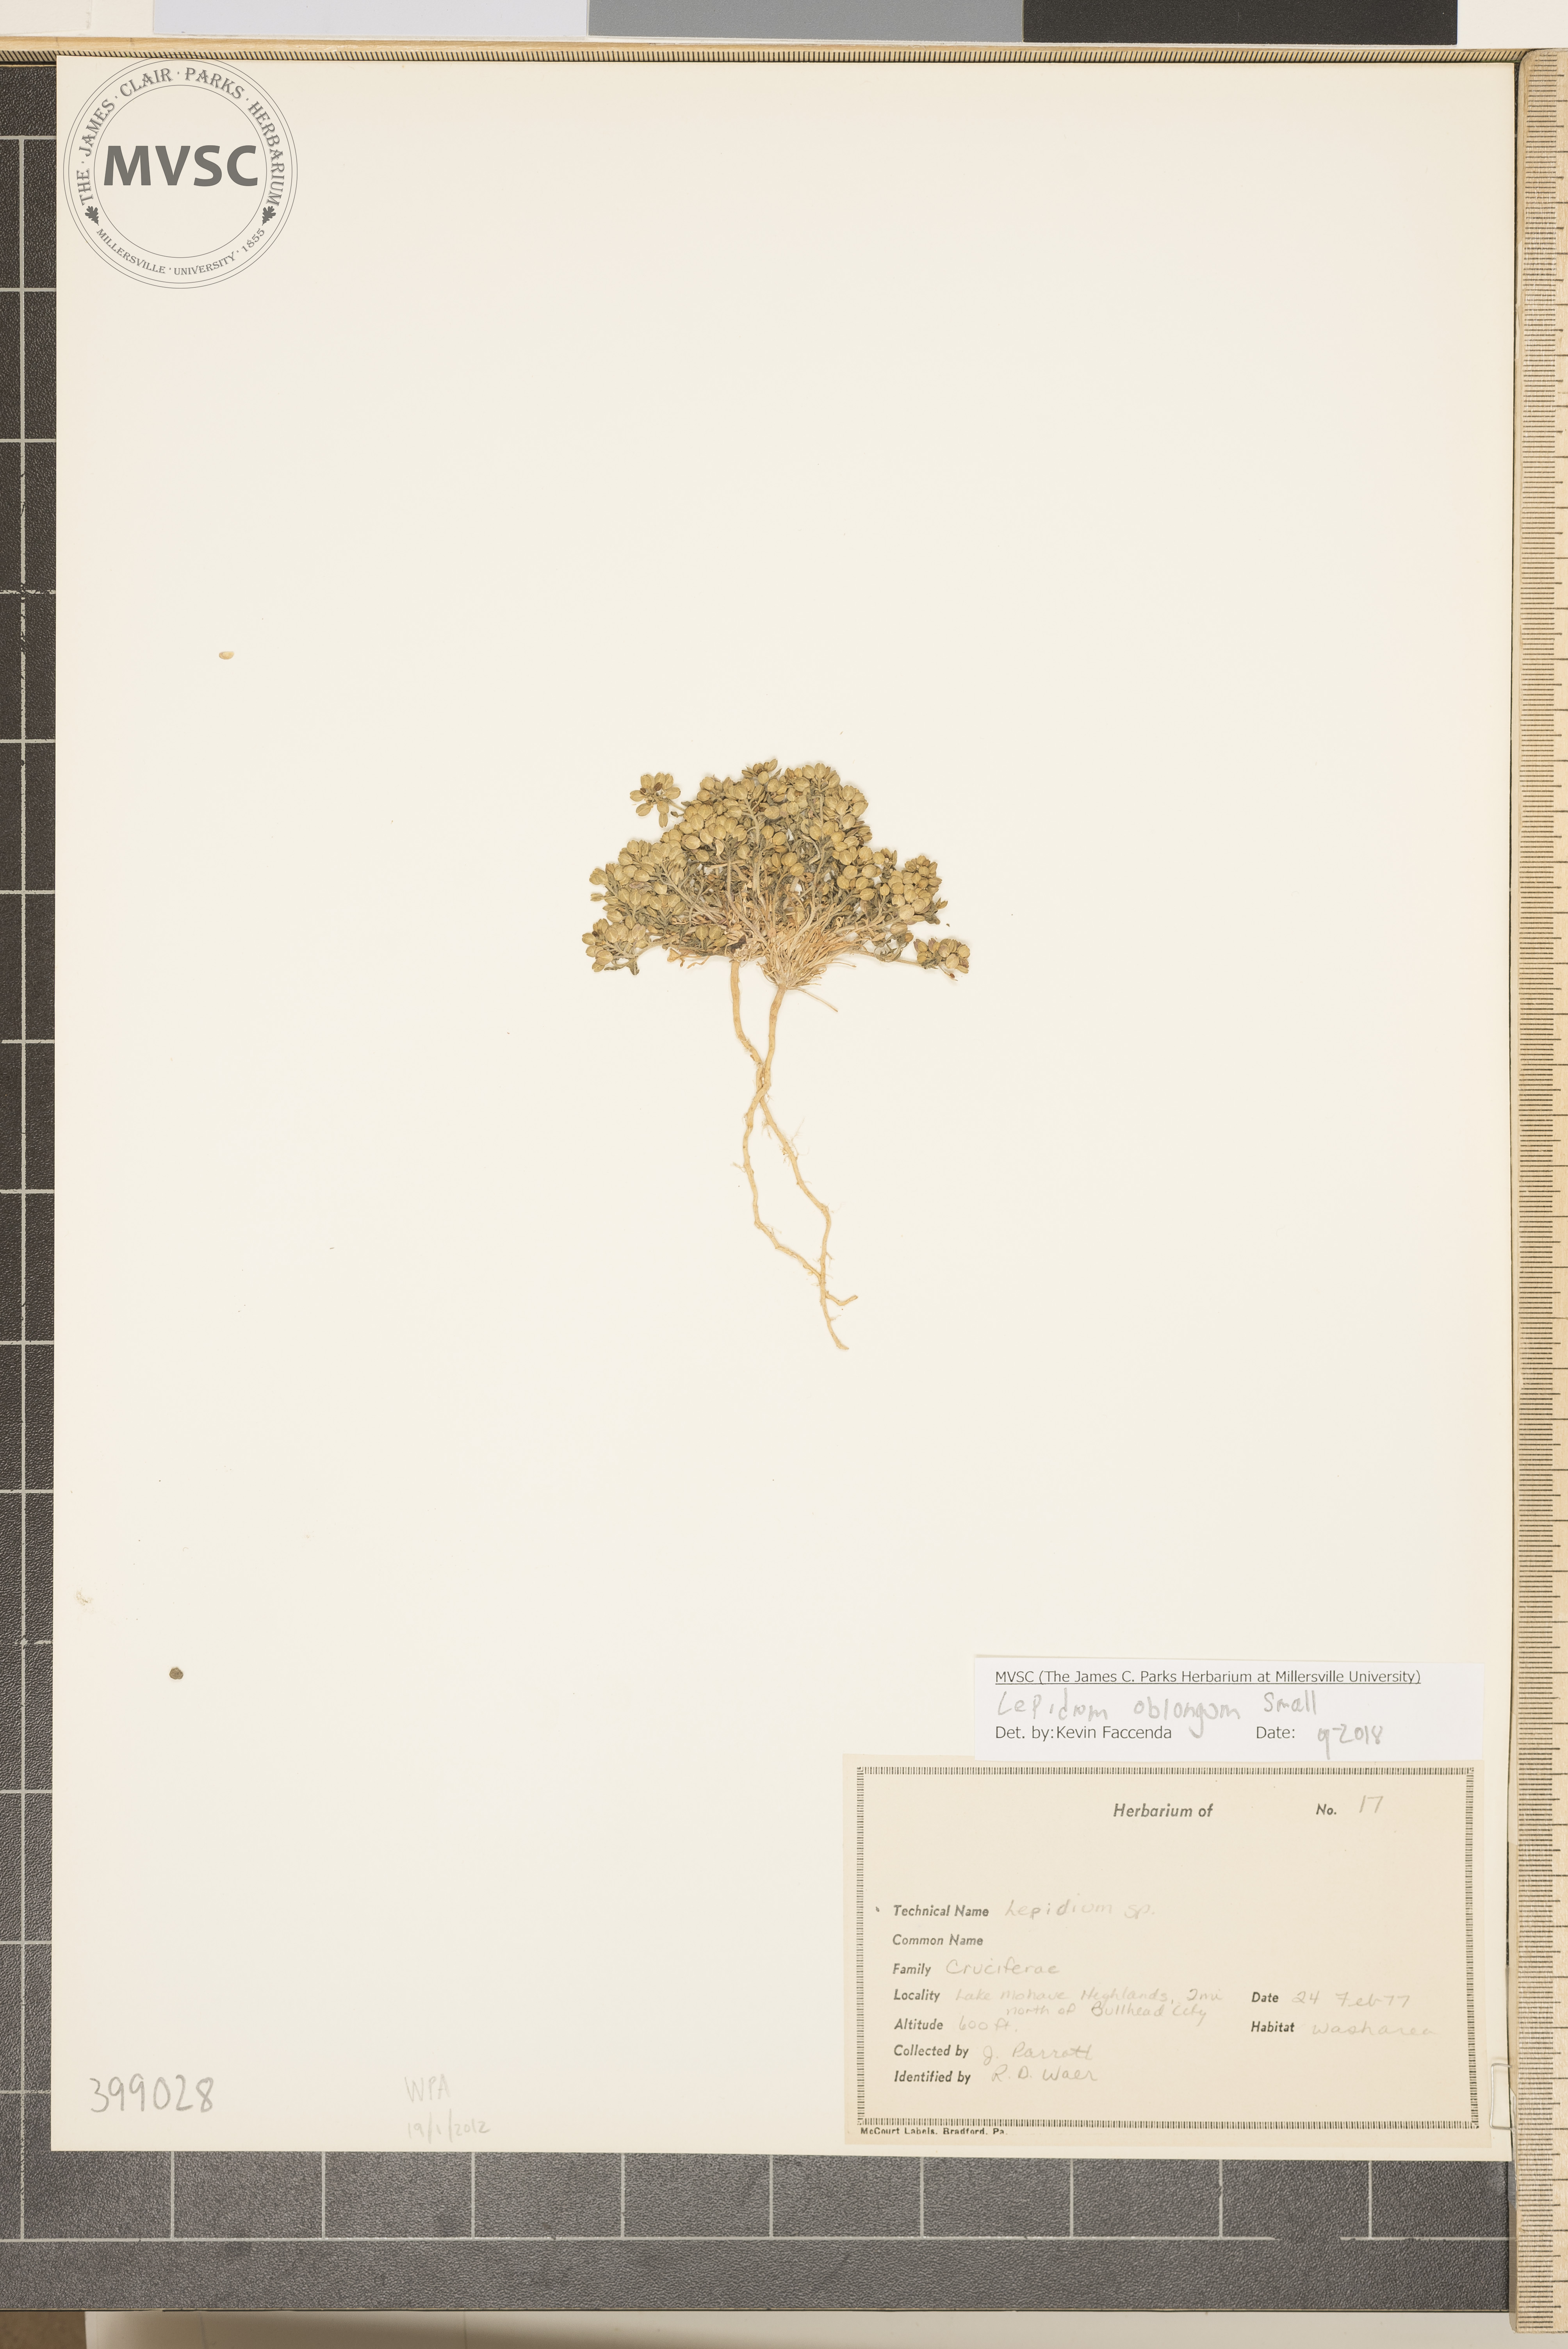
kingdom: Plantae
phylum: Tracheophyta
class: Magnoliopsida
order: Brassicales
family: Brassicaceae
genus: Lepidium
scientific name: Lepidium oblongum
